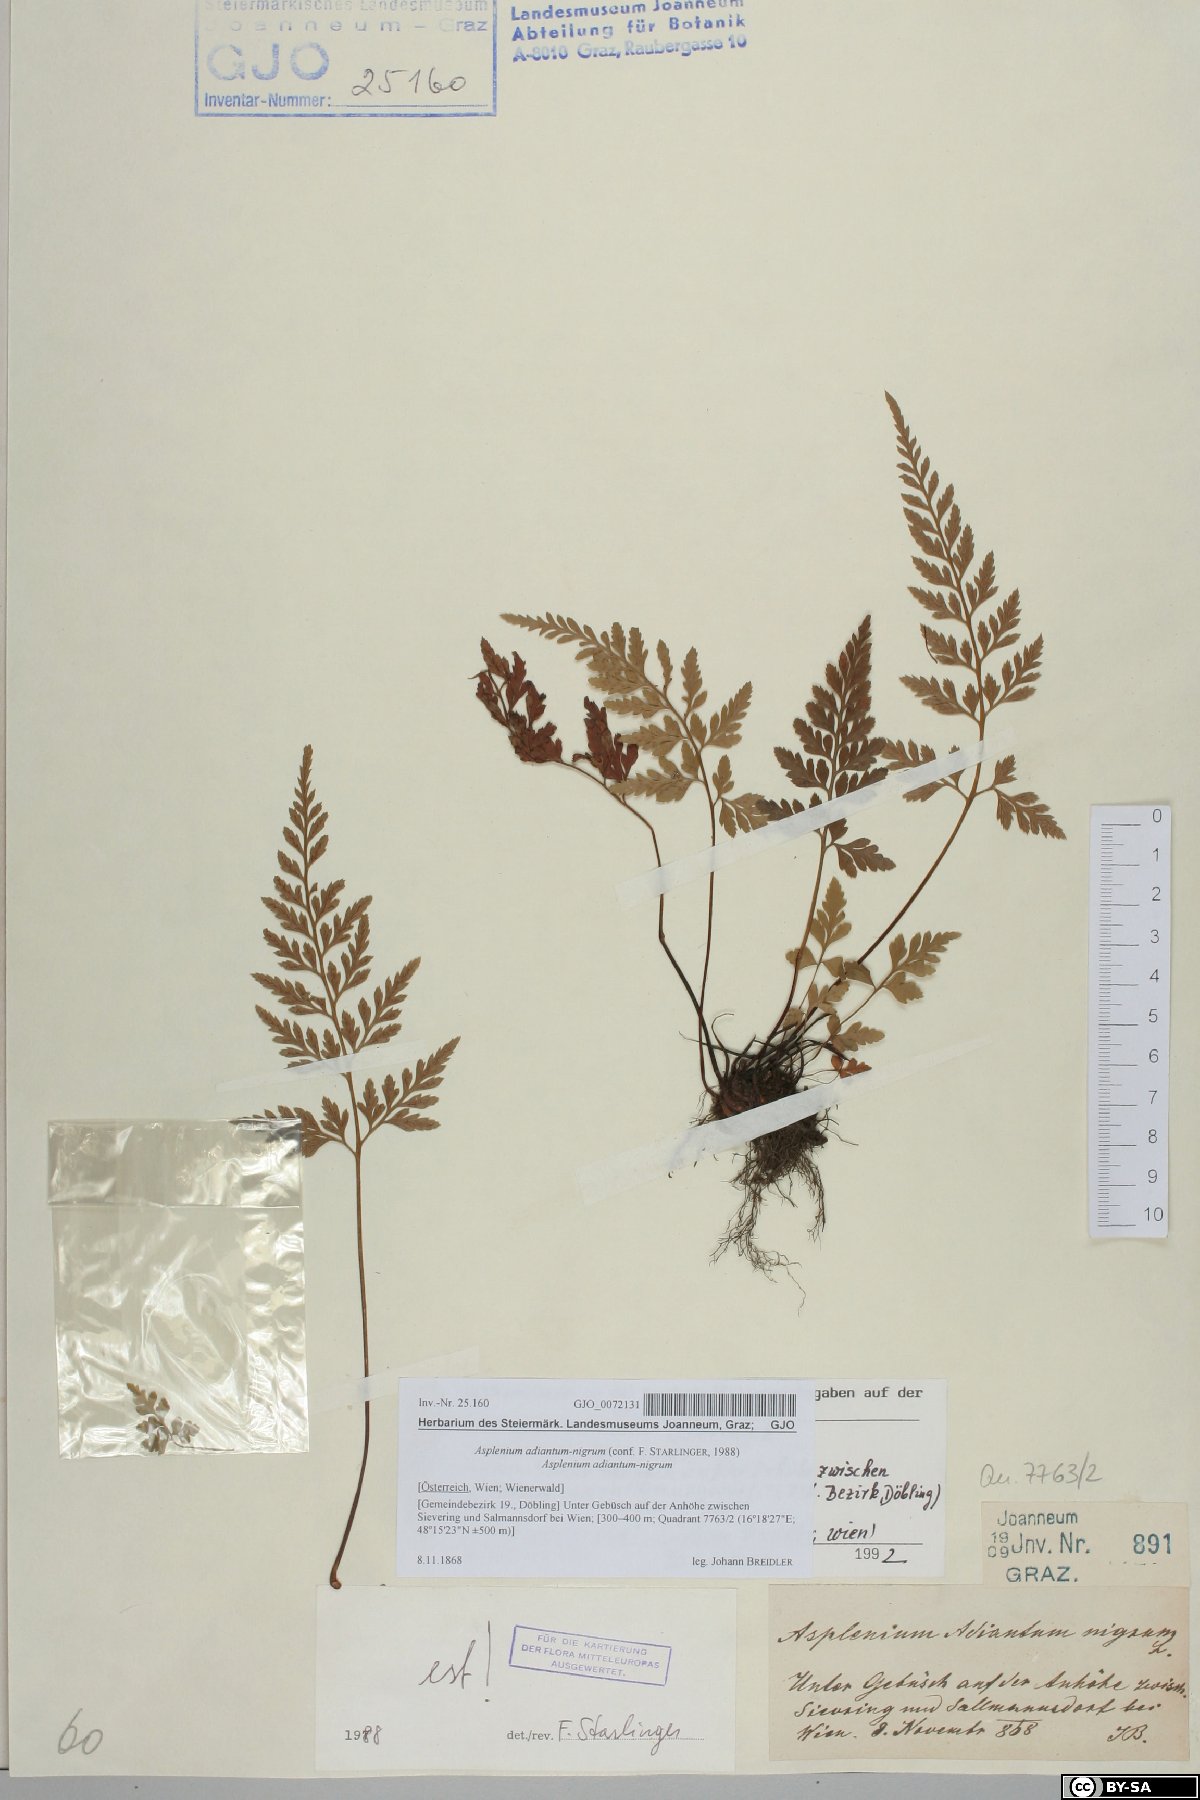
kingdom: Plantae
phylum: Tracheophyta
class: Polypodiopsida
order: Polypodiales
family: Aspleniaceae
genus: Asplenium
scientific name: Asplenium adiantum-nigrum
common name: Black spleenwort
